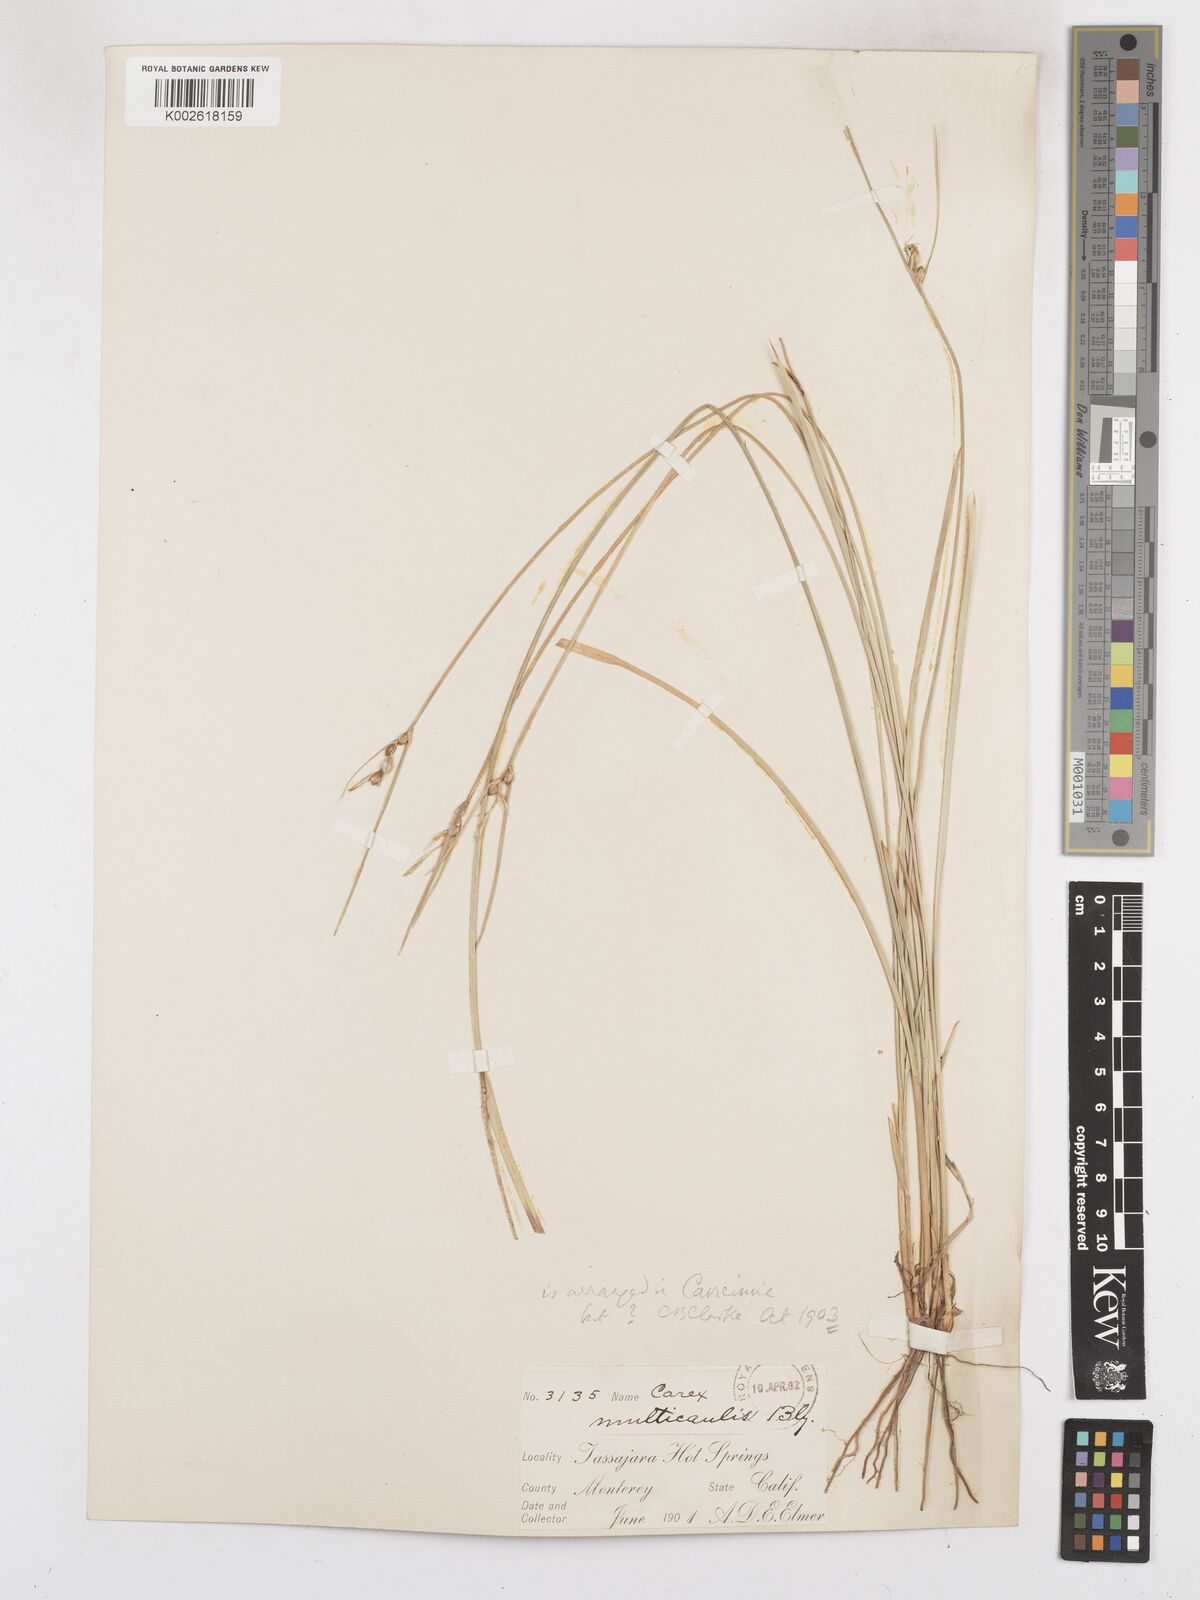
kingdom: Plantae
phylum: Tracheophyta
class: Liliopsida
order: Poales
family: Cyperaceae
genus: Carex
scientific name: Carex multicaulis
